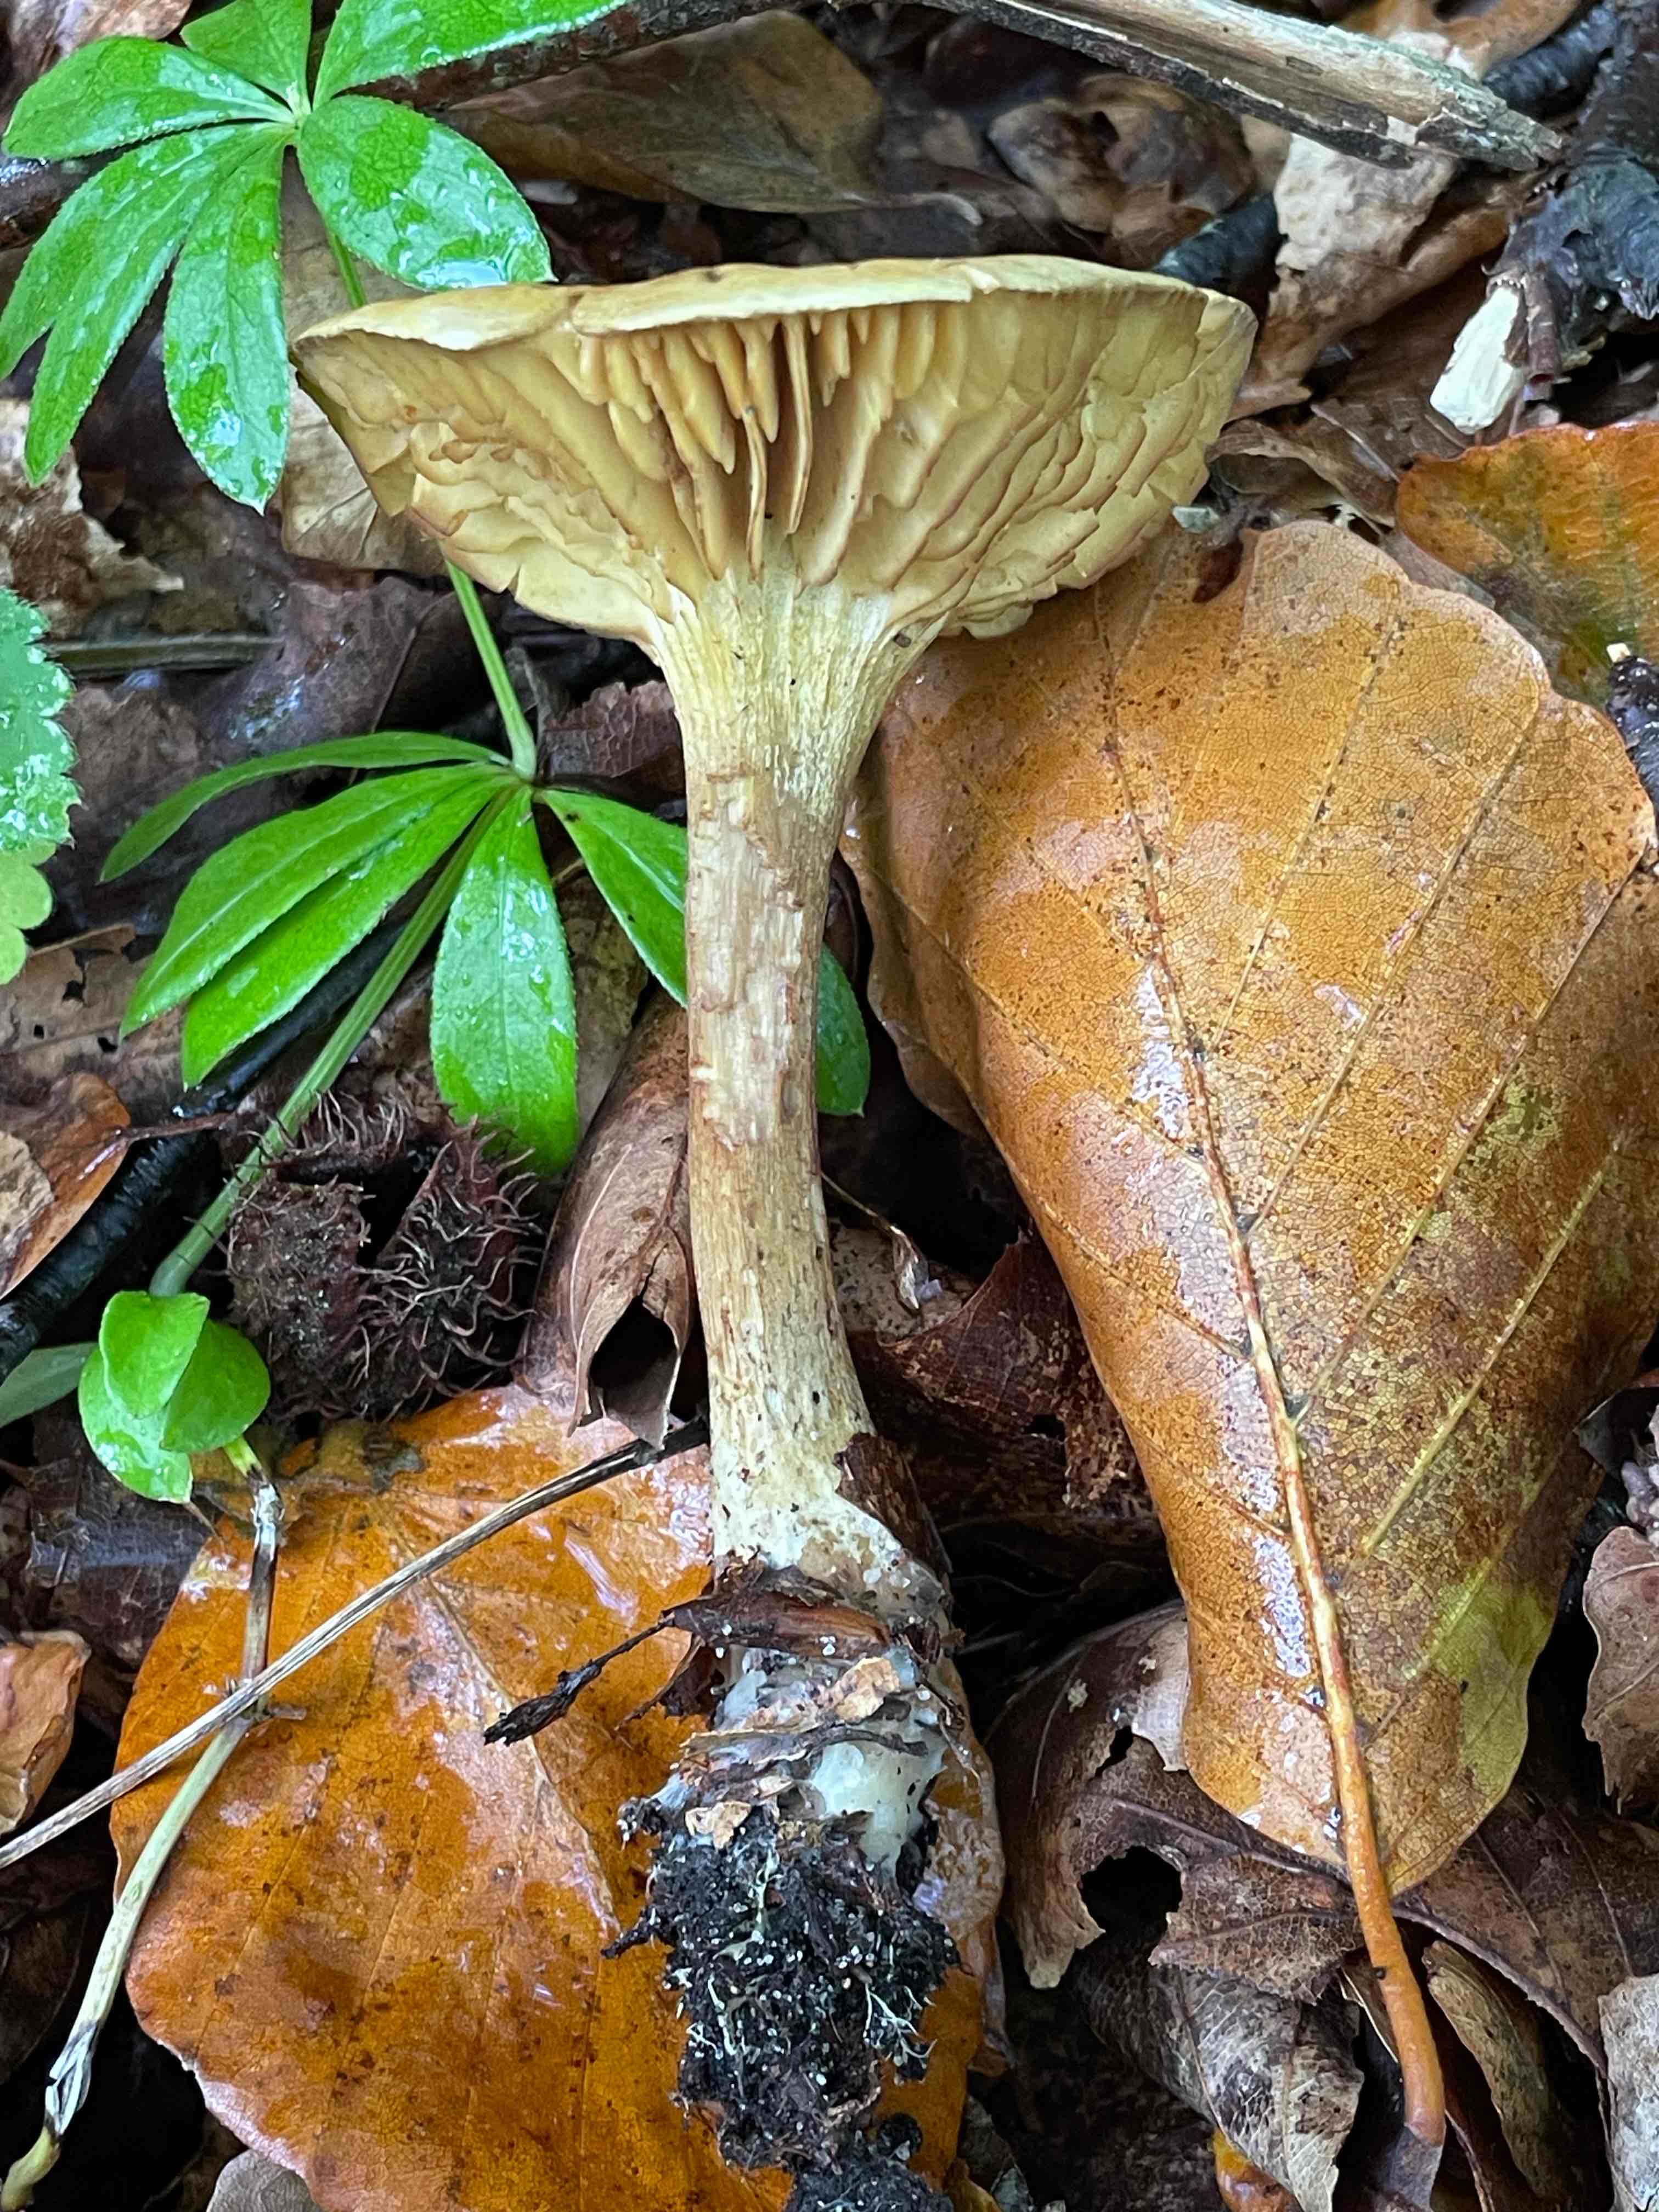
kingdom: Fungi
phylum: Basidiomycota
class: Agaricomycetes
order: Agaricales
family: Tricholomataceae
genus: Tricholoma
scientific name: Tricholoma sulphureum
